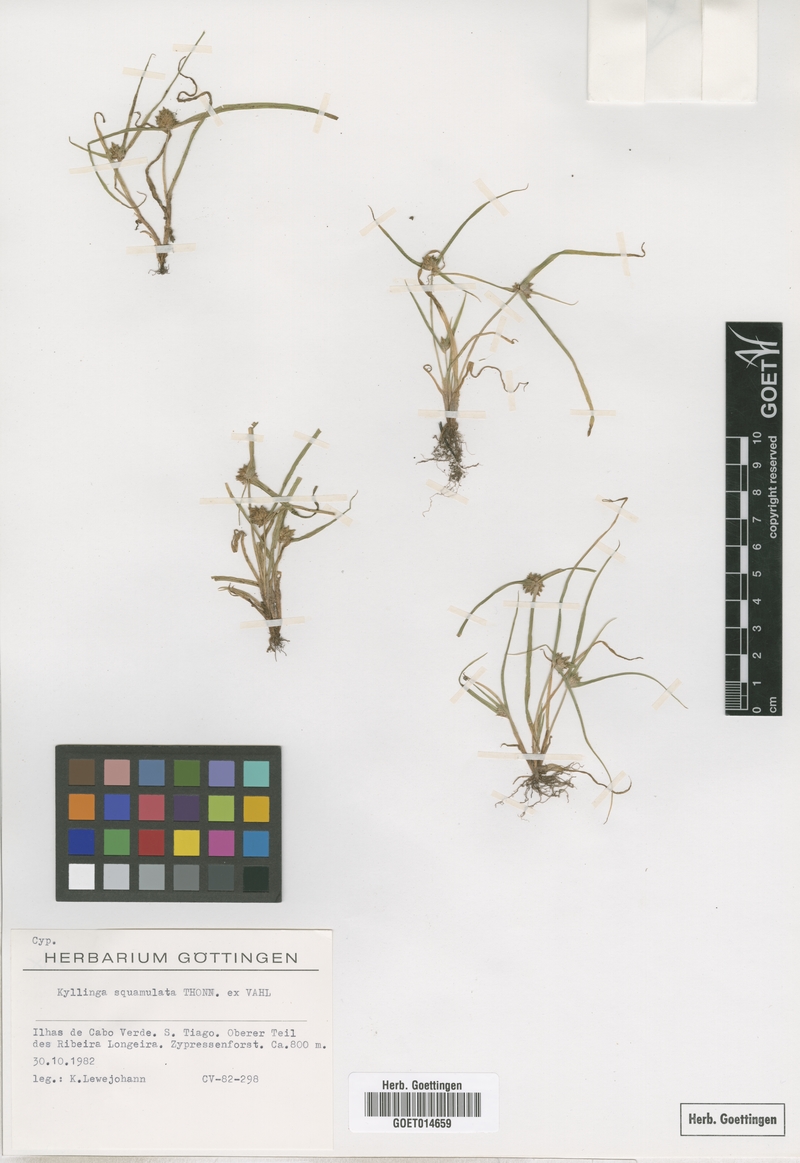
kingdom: Plantae
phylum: Tracheophyta
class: Liliopsida
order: Poales
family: Cyperaceae
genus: Cyperus
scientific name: Cyperus metzii
